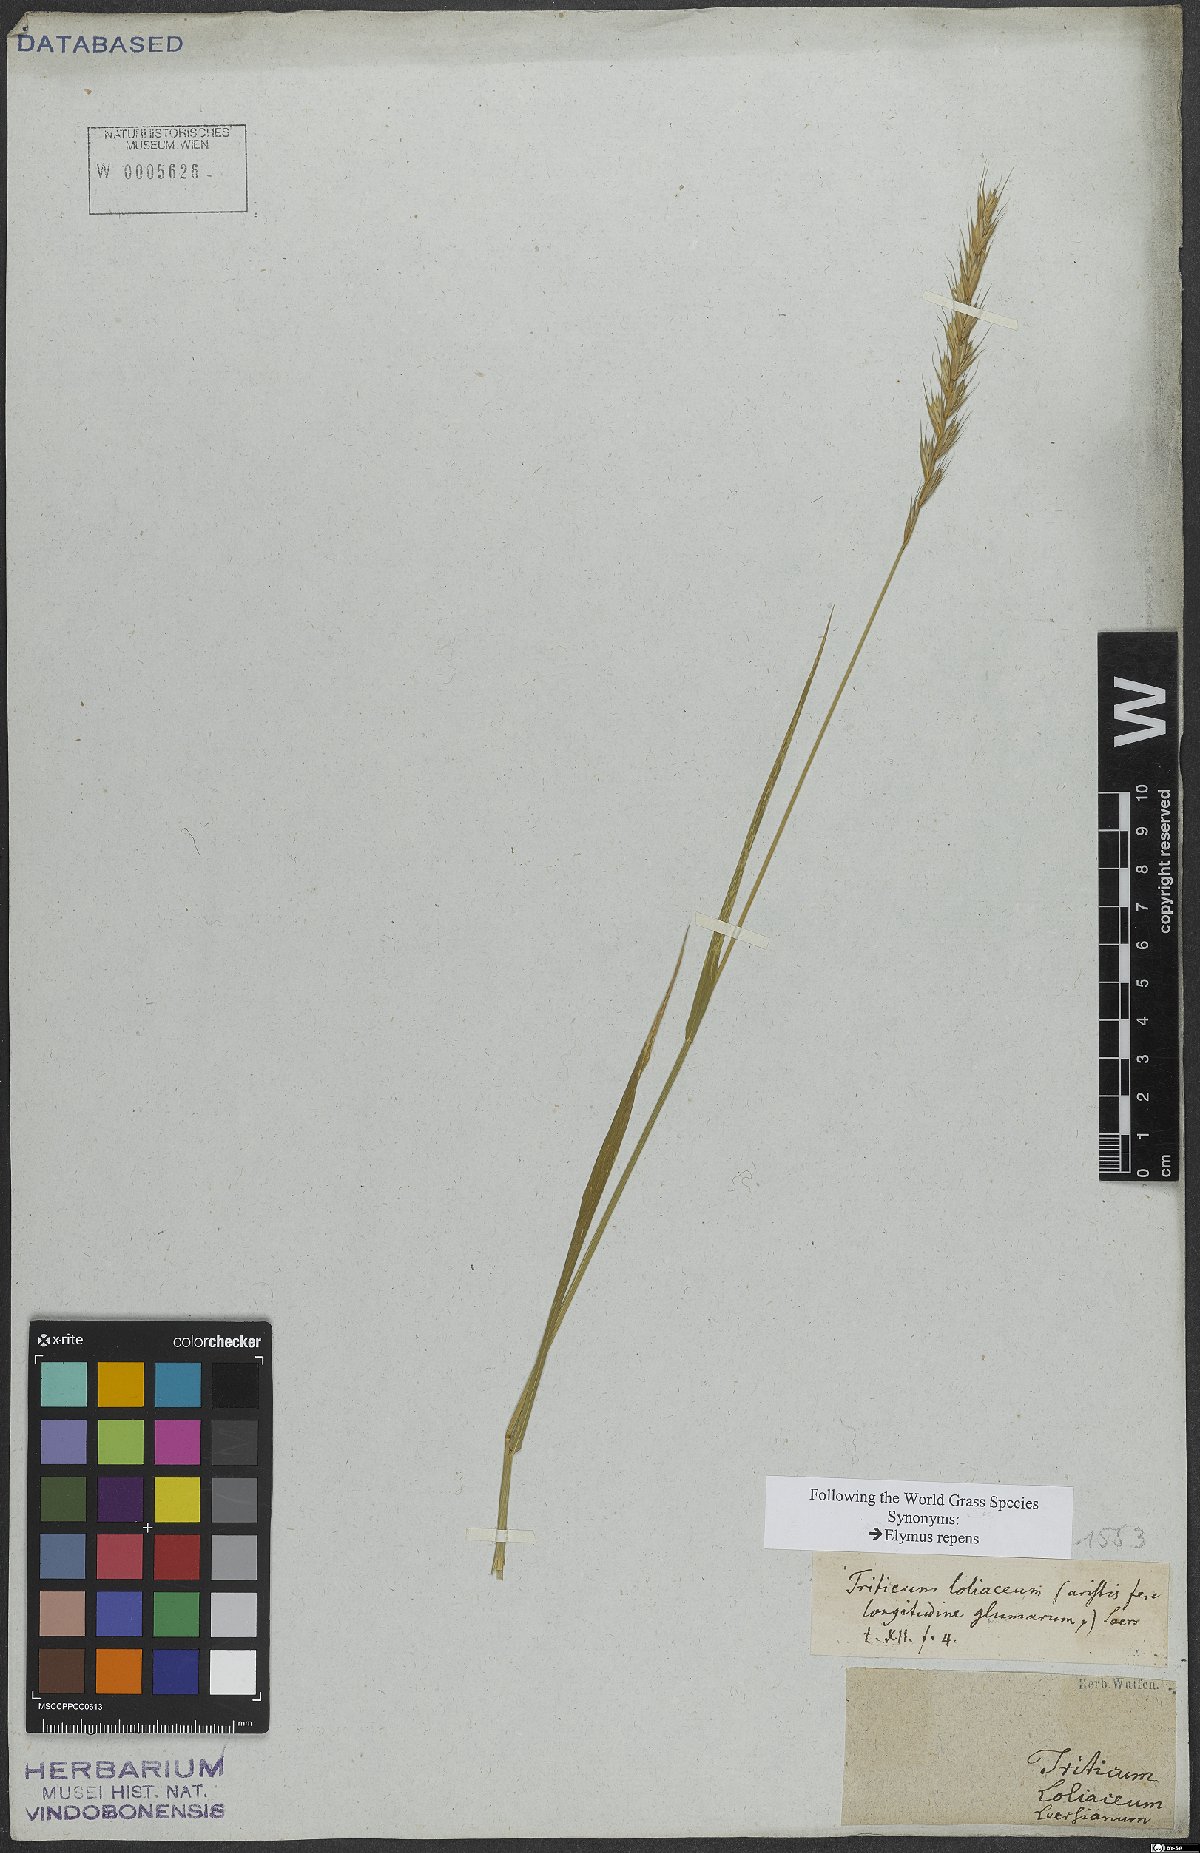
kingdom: Plantae
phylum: Tracheophyta
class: Liliopsida
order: Poales
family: Poaceae
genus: Elymus
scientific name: Elymus repens
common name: Quackgrass
